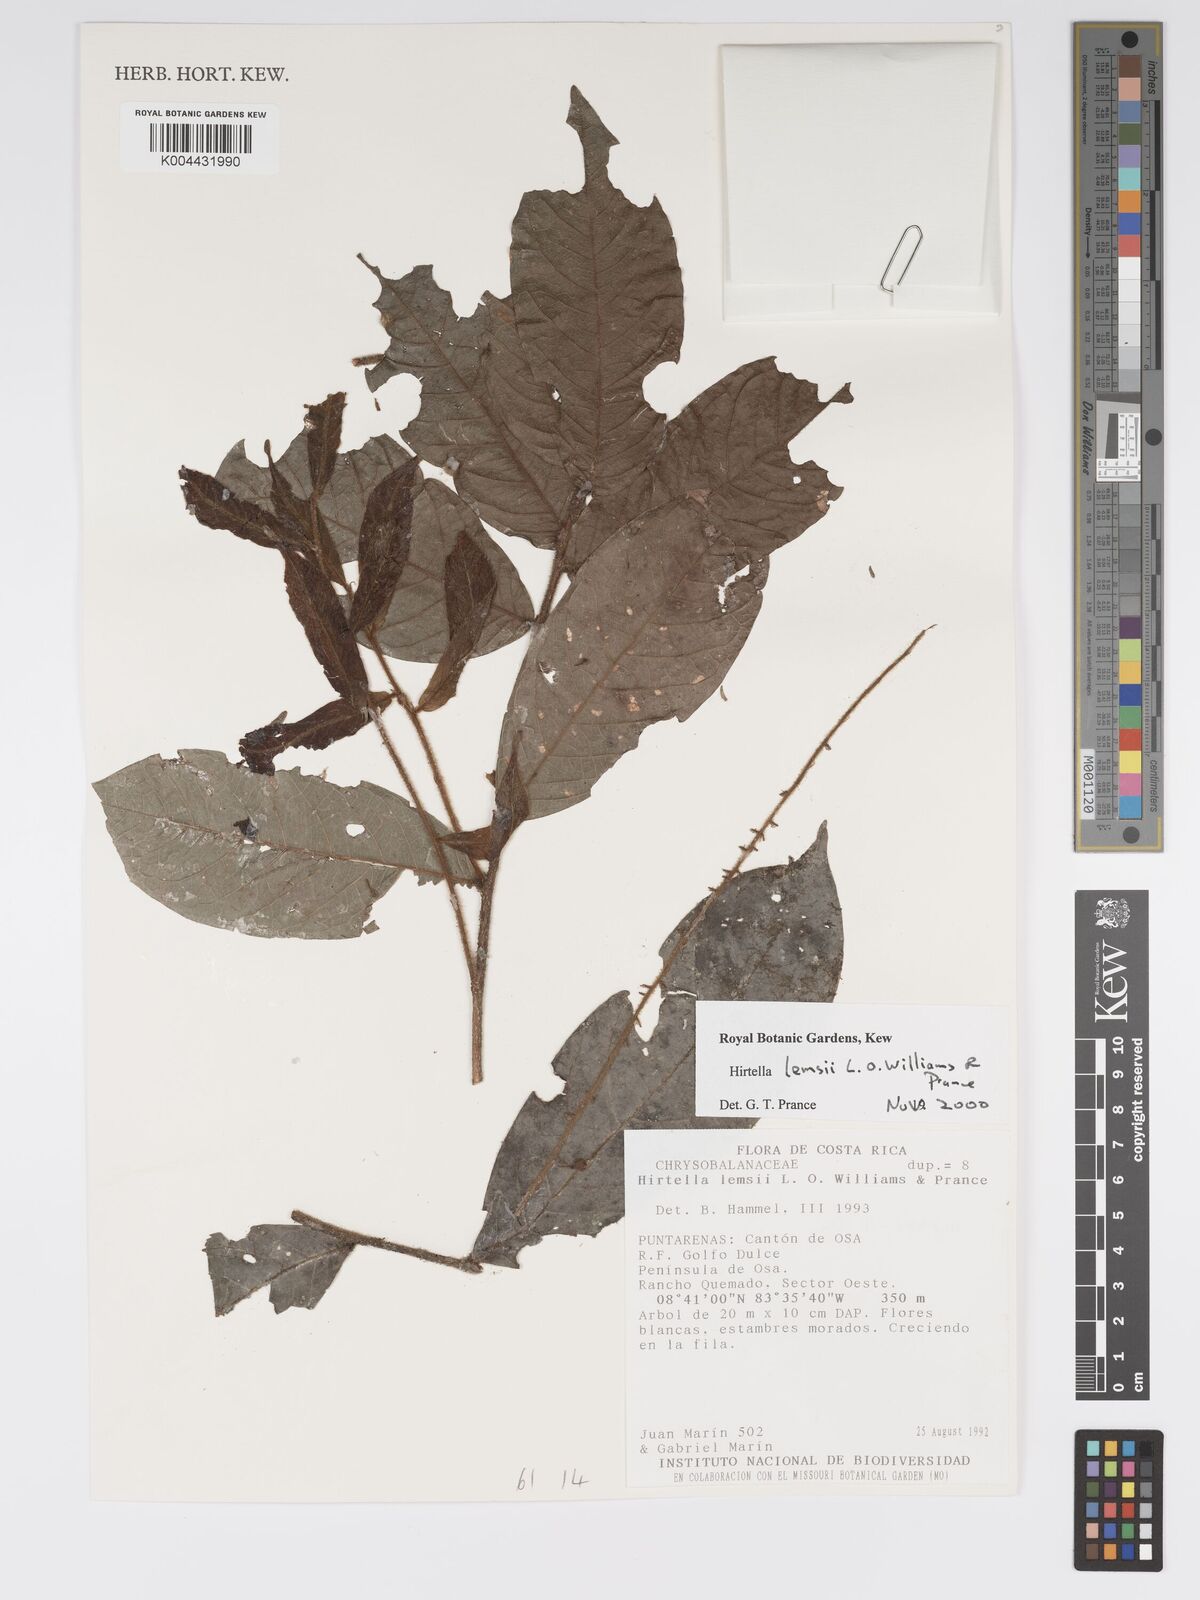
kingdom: Plantae
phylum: Tracheophyta
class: Magnoliopsida
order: Malpighiales
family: Chrysobalanaceae
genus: Hirtella
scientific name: Hirtella lemsii
